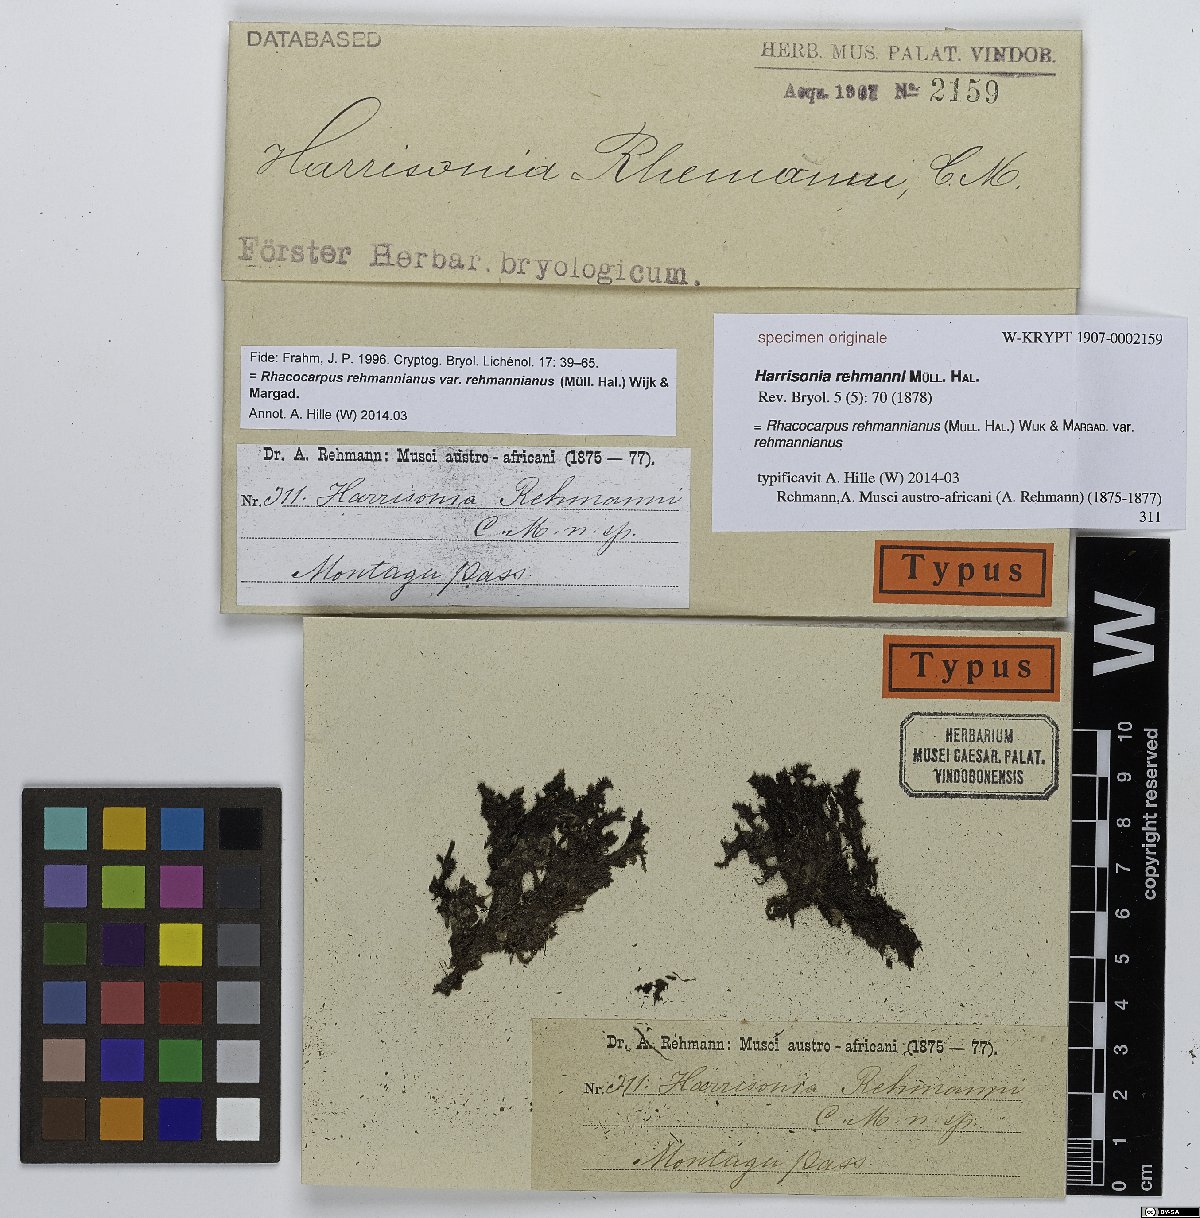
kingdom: Plantae
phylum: Tracheophyta
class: Magnoliopsida
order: Sapindales
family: Rutaceae
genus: Harrisonia
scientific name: Harrisonia
